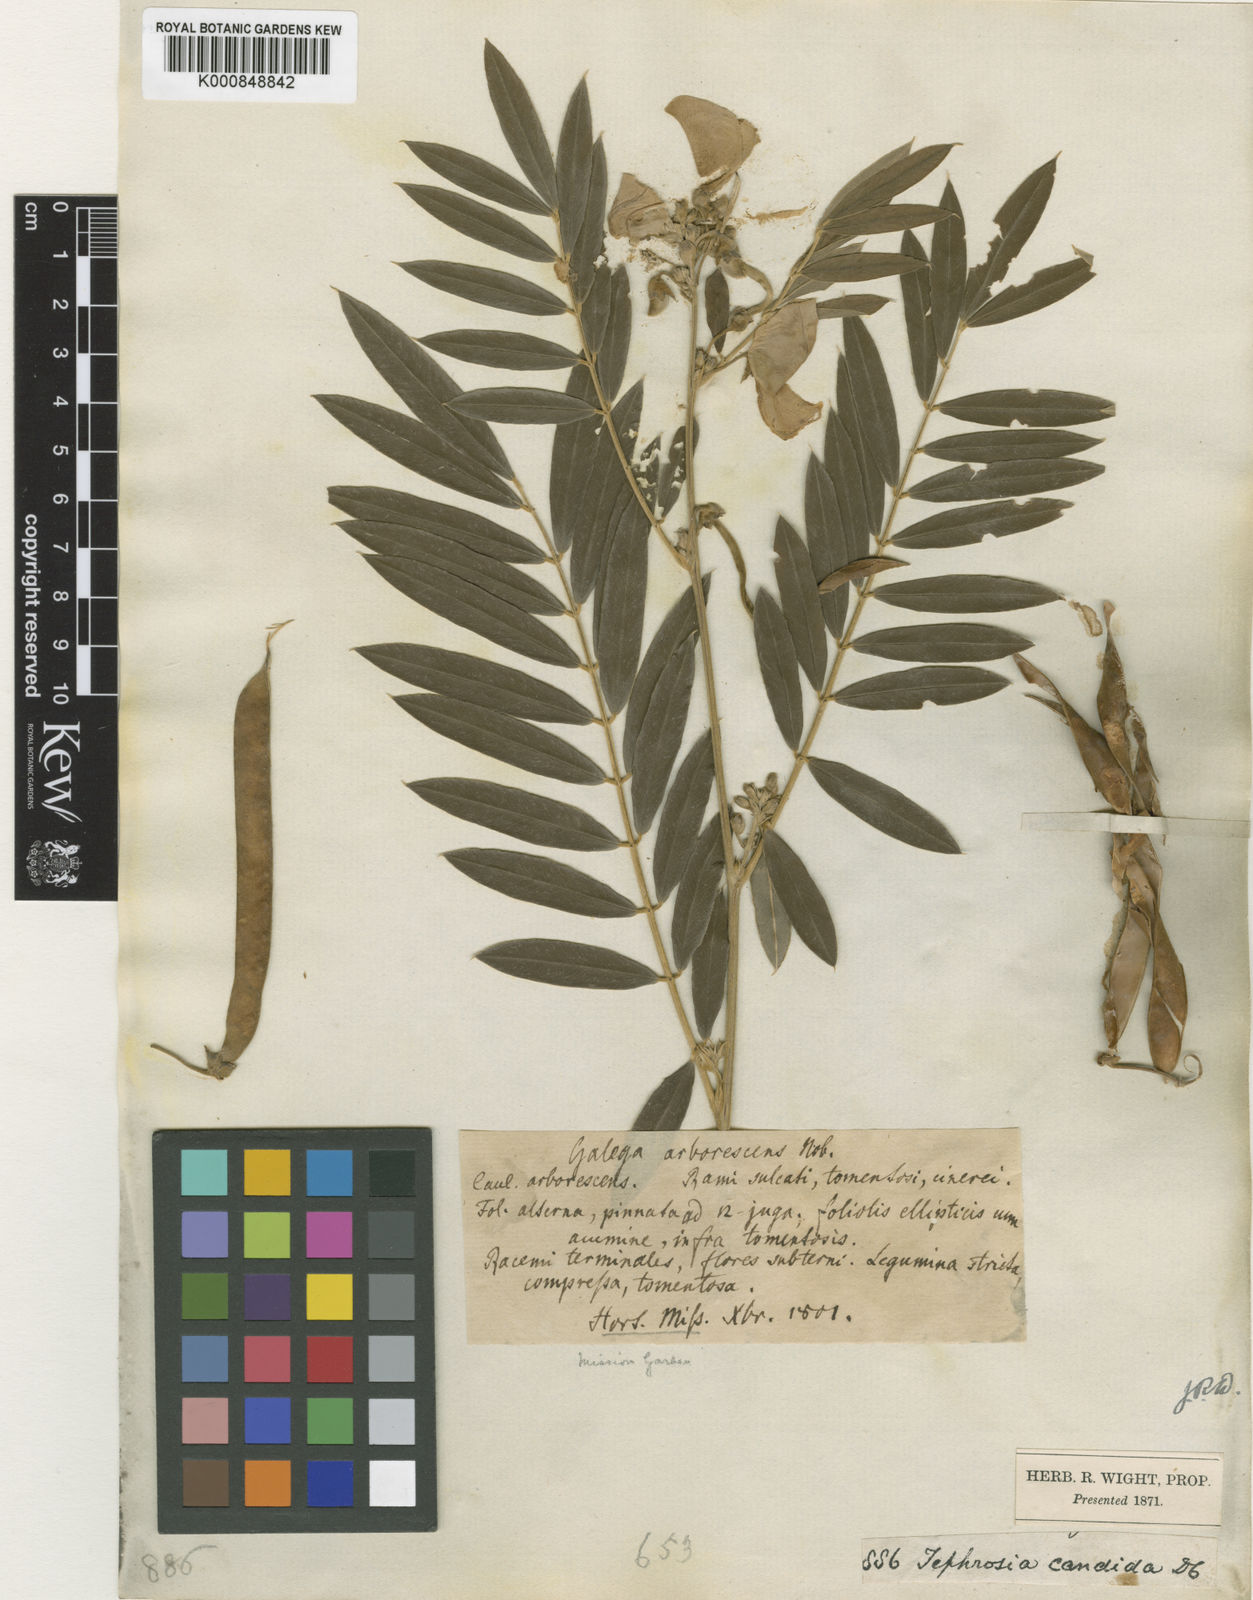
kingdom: Plantae
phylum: Tracheophyta
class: Magnoliopsida
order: Fabales
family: Fabaceae
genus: Tephrosia
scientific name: Tephrosia candida
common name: White tephrosia
